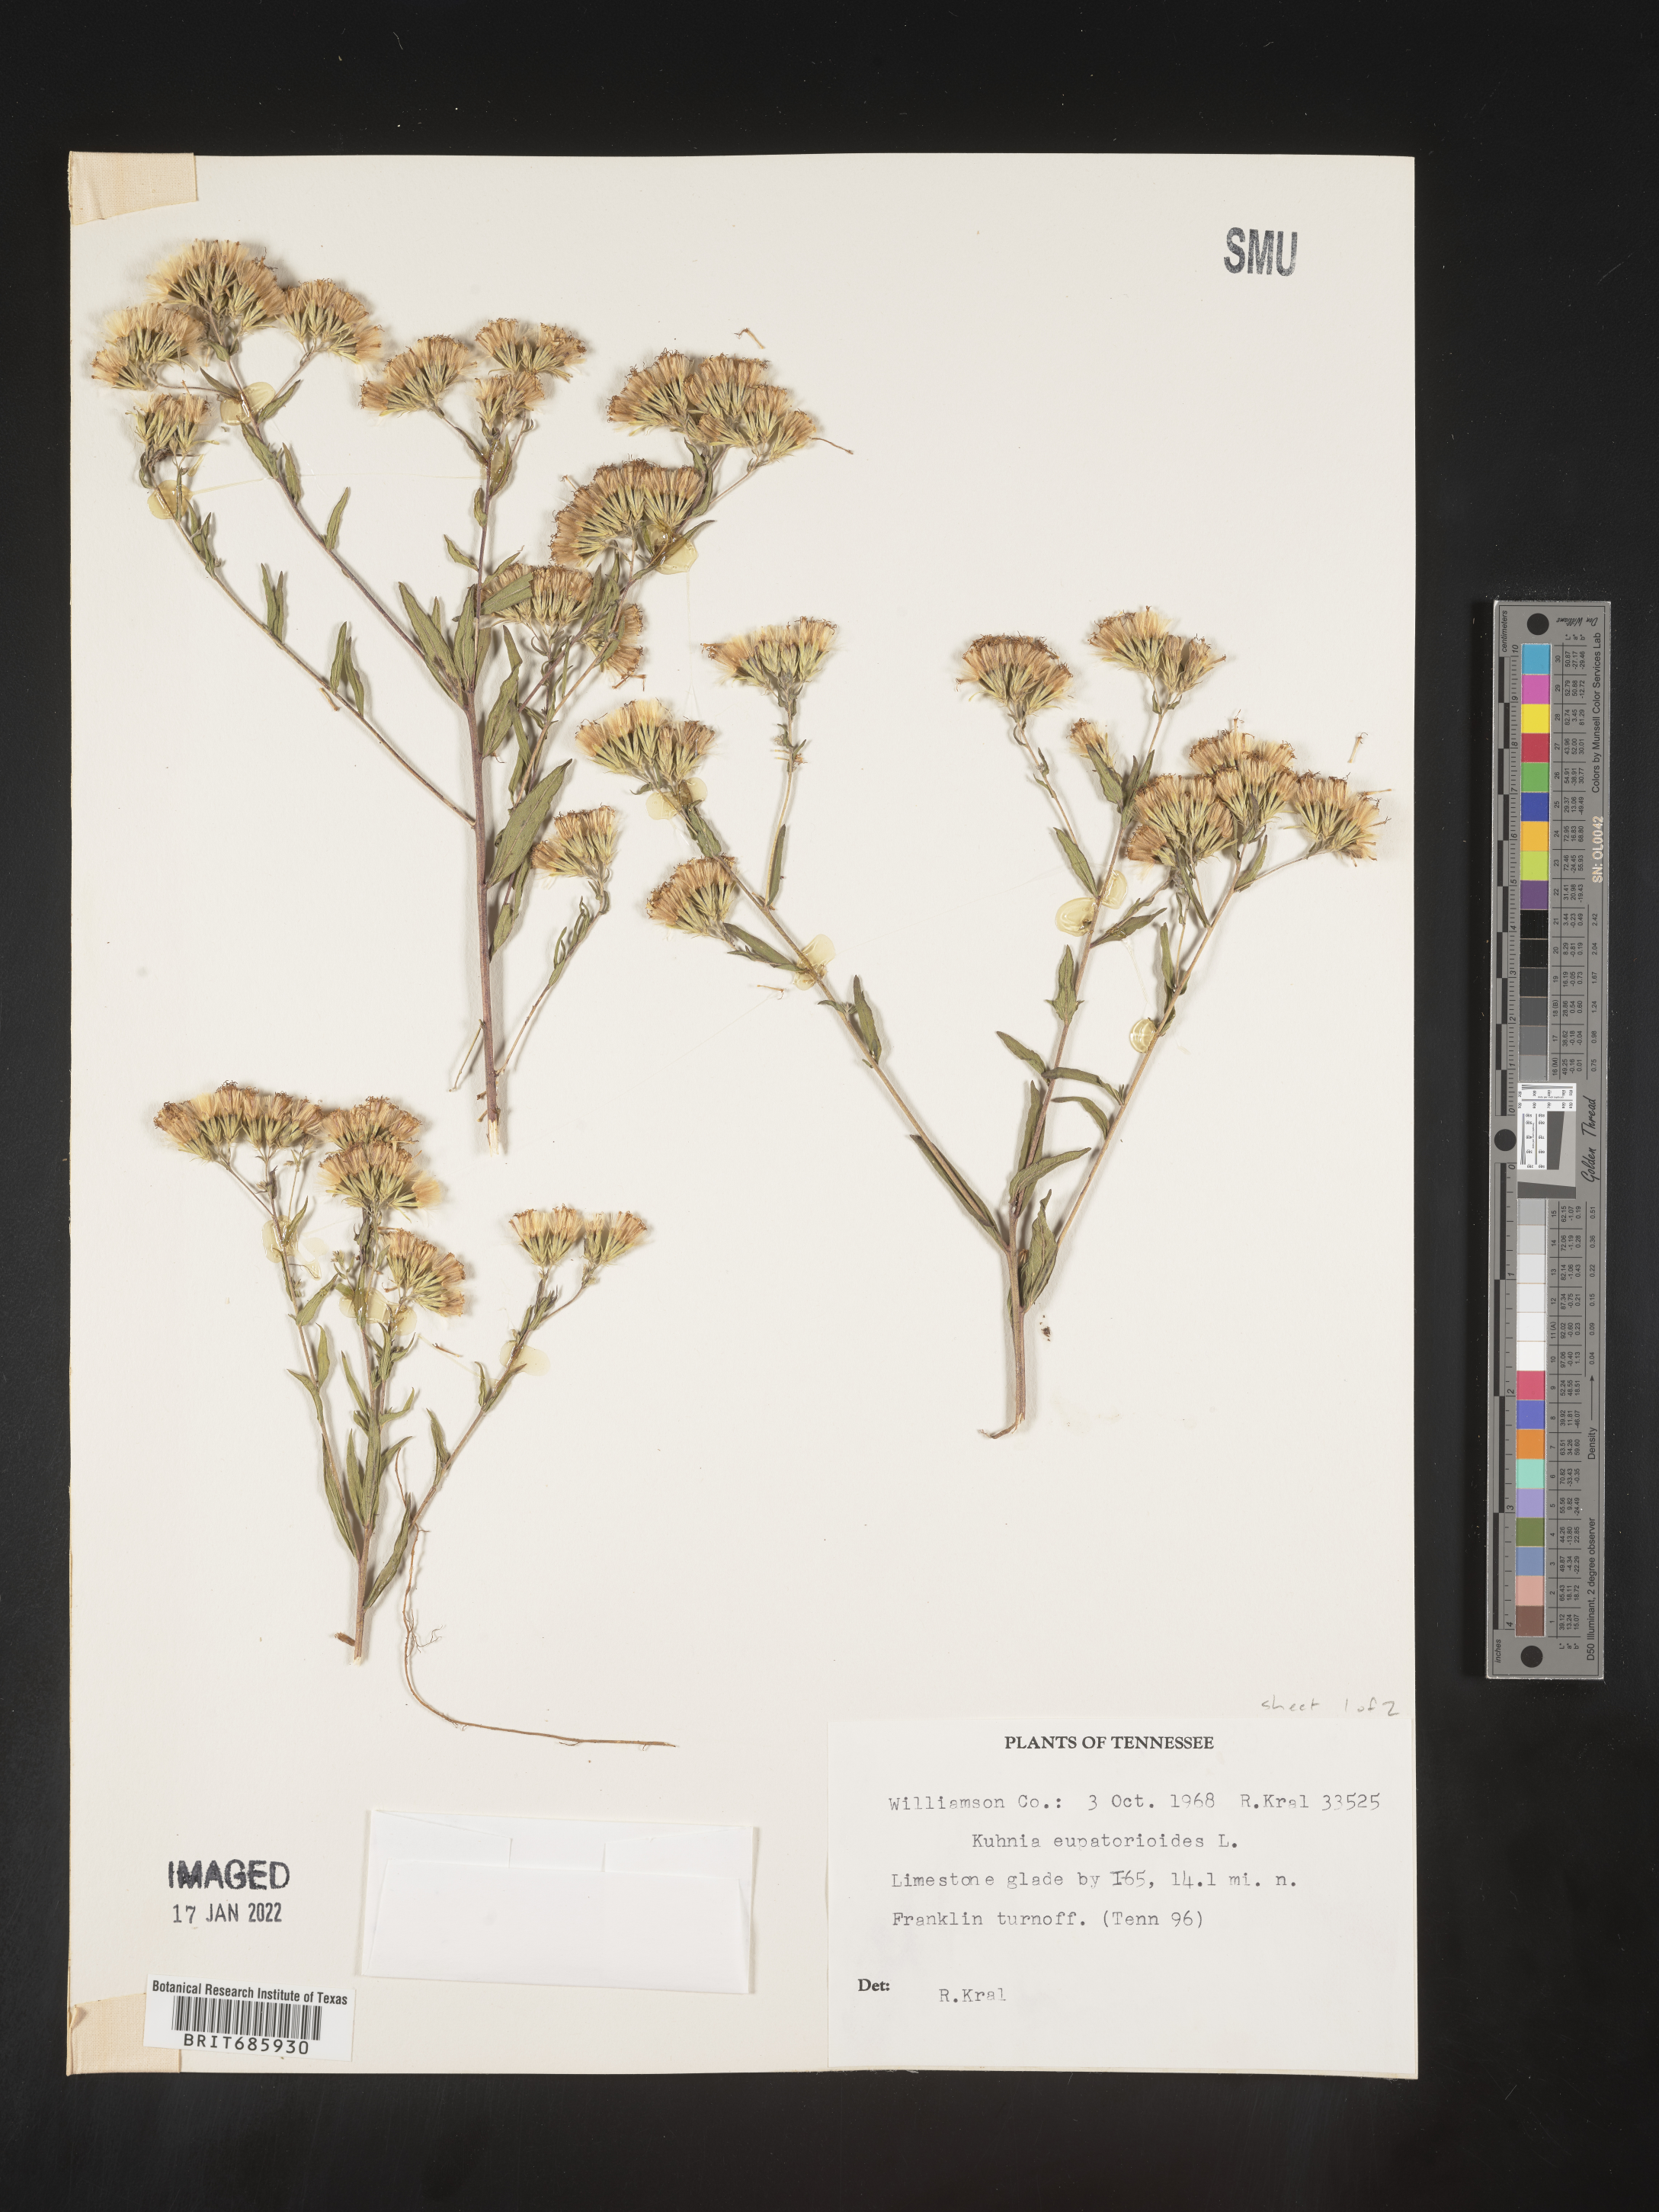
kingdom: Plantae
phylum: Tracheophyta
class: Magnoliopsida
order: Asterales
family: Asteraceae
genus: Brickellia
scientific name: Brickellia eupatorioides
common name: False boneset
